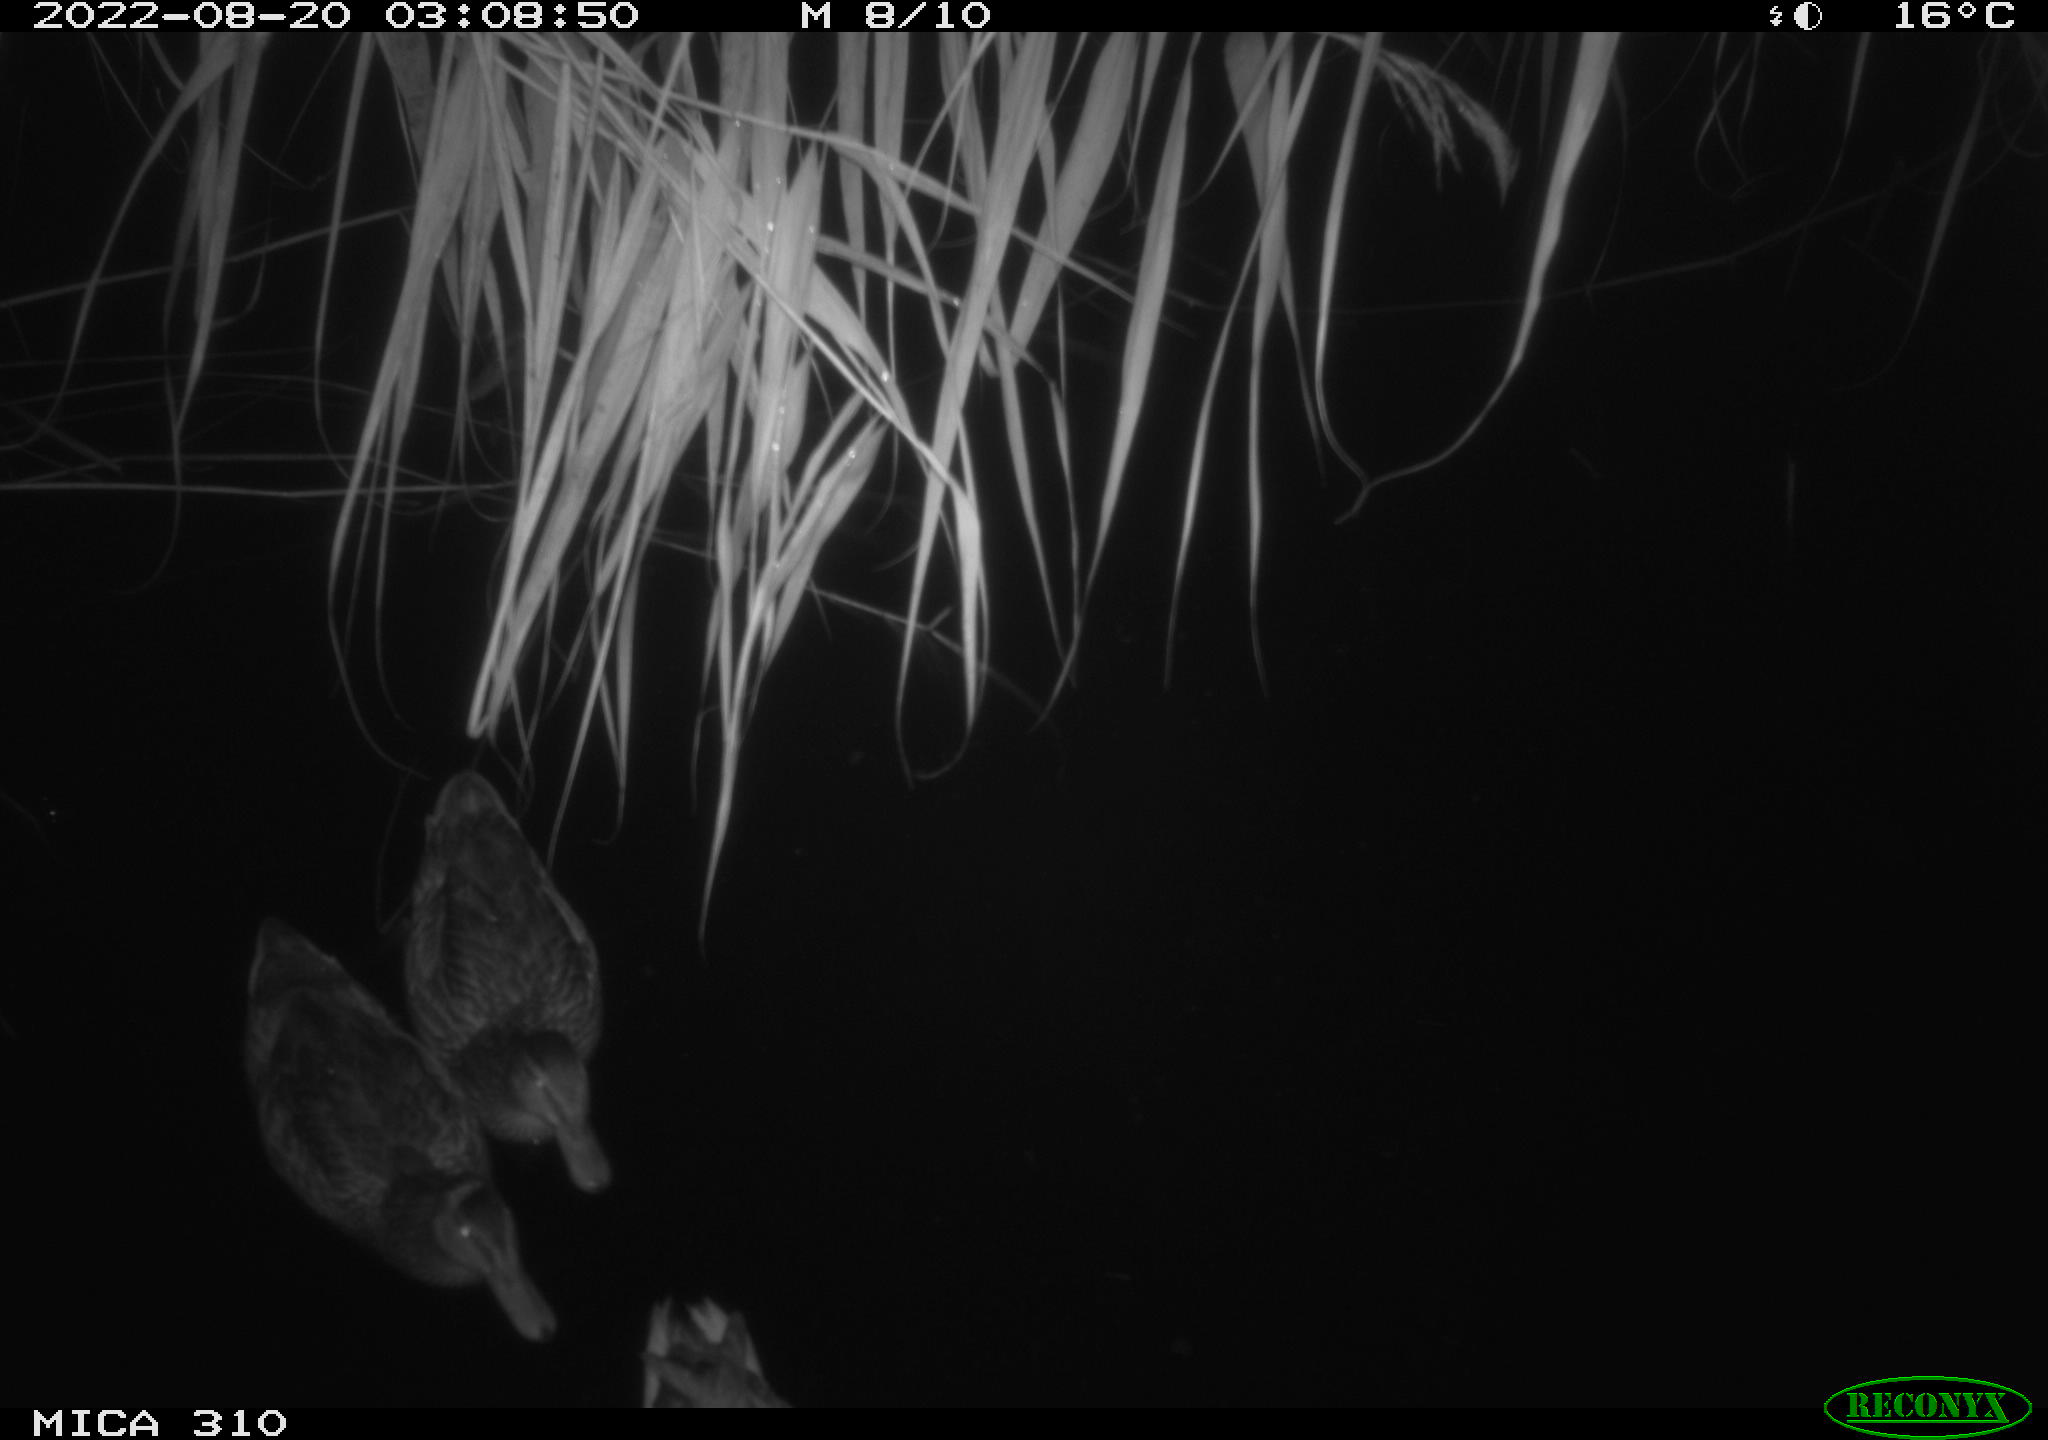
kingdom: Animalia
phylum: Chordata
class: Aves
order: Anseriformes
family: Anatidae
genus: Anas
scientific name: Anas platyrhynchos
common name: Mallard
